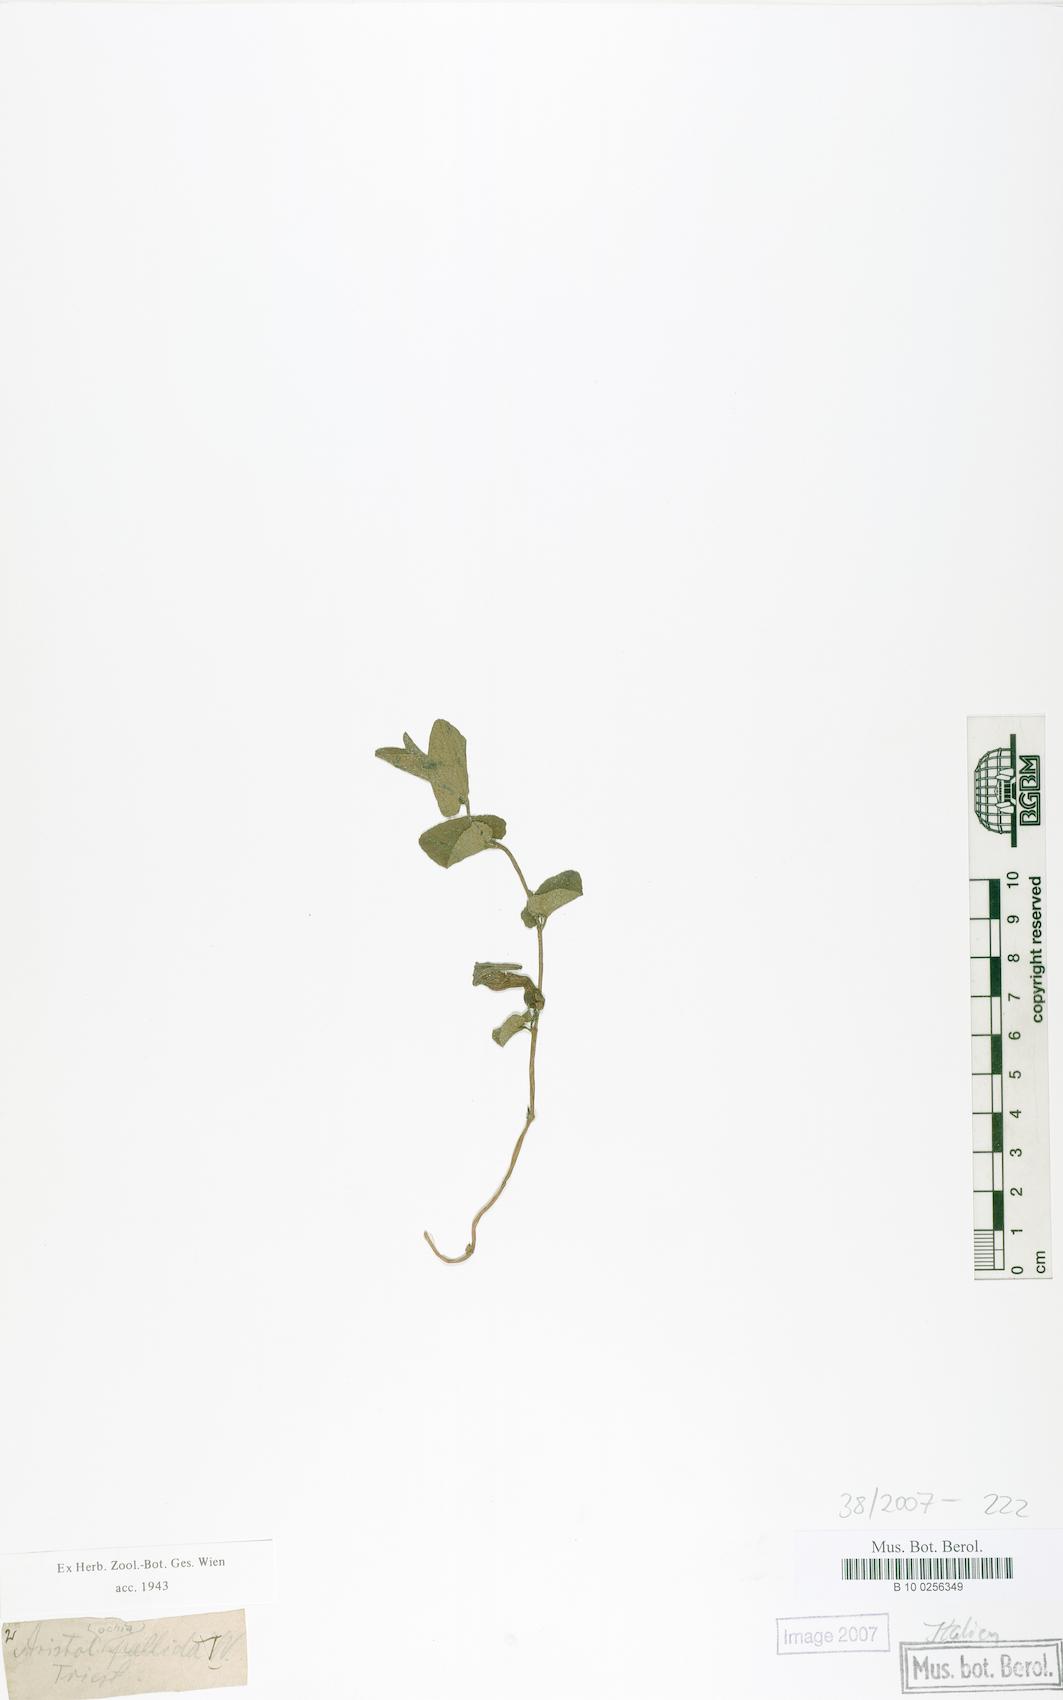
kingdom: Plantae
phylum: Tracheophyta
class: Magnoliopsida
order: Piperales
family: Aristolochiaceae
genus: Aristolochia
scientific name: Aristolochia pallida
